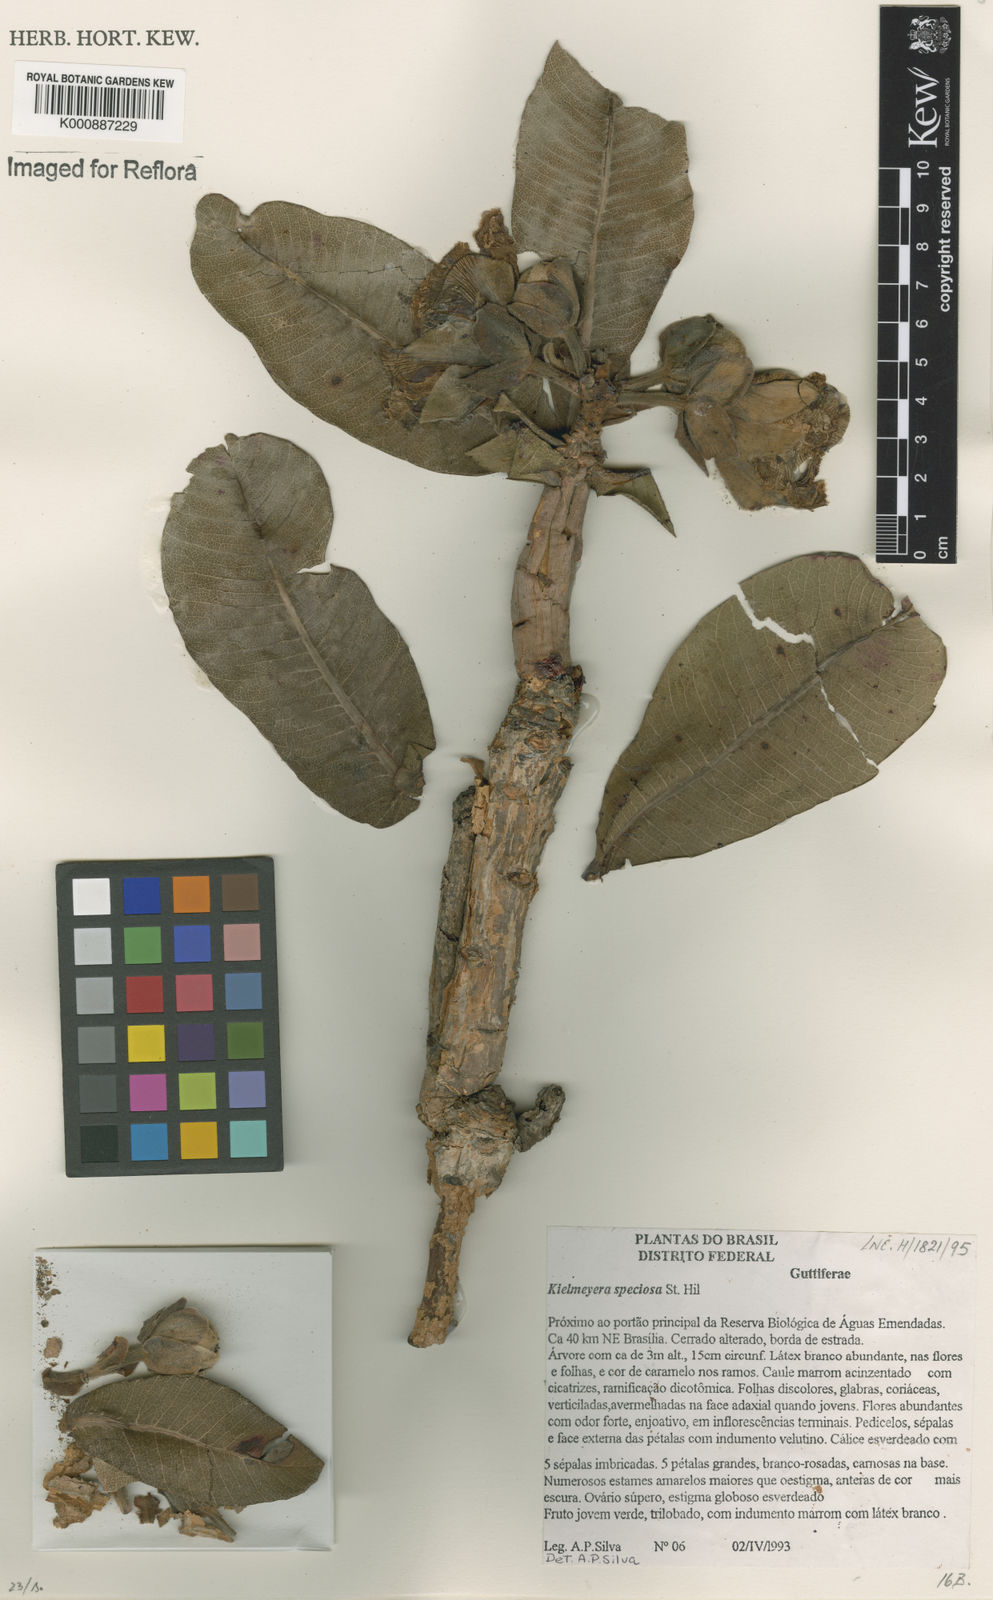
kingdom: Plantae
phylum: Tracheophyta
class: Magnoliopsida
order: Malpighiales
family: Calophyllaceae
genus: Kielmeyera
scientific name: Kielmeyera speciosa
